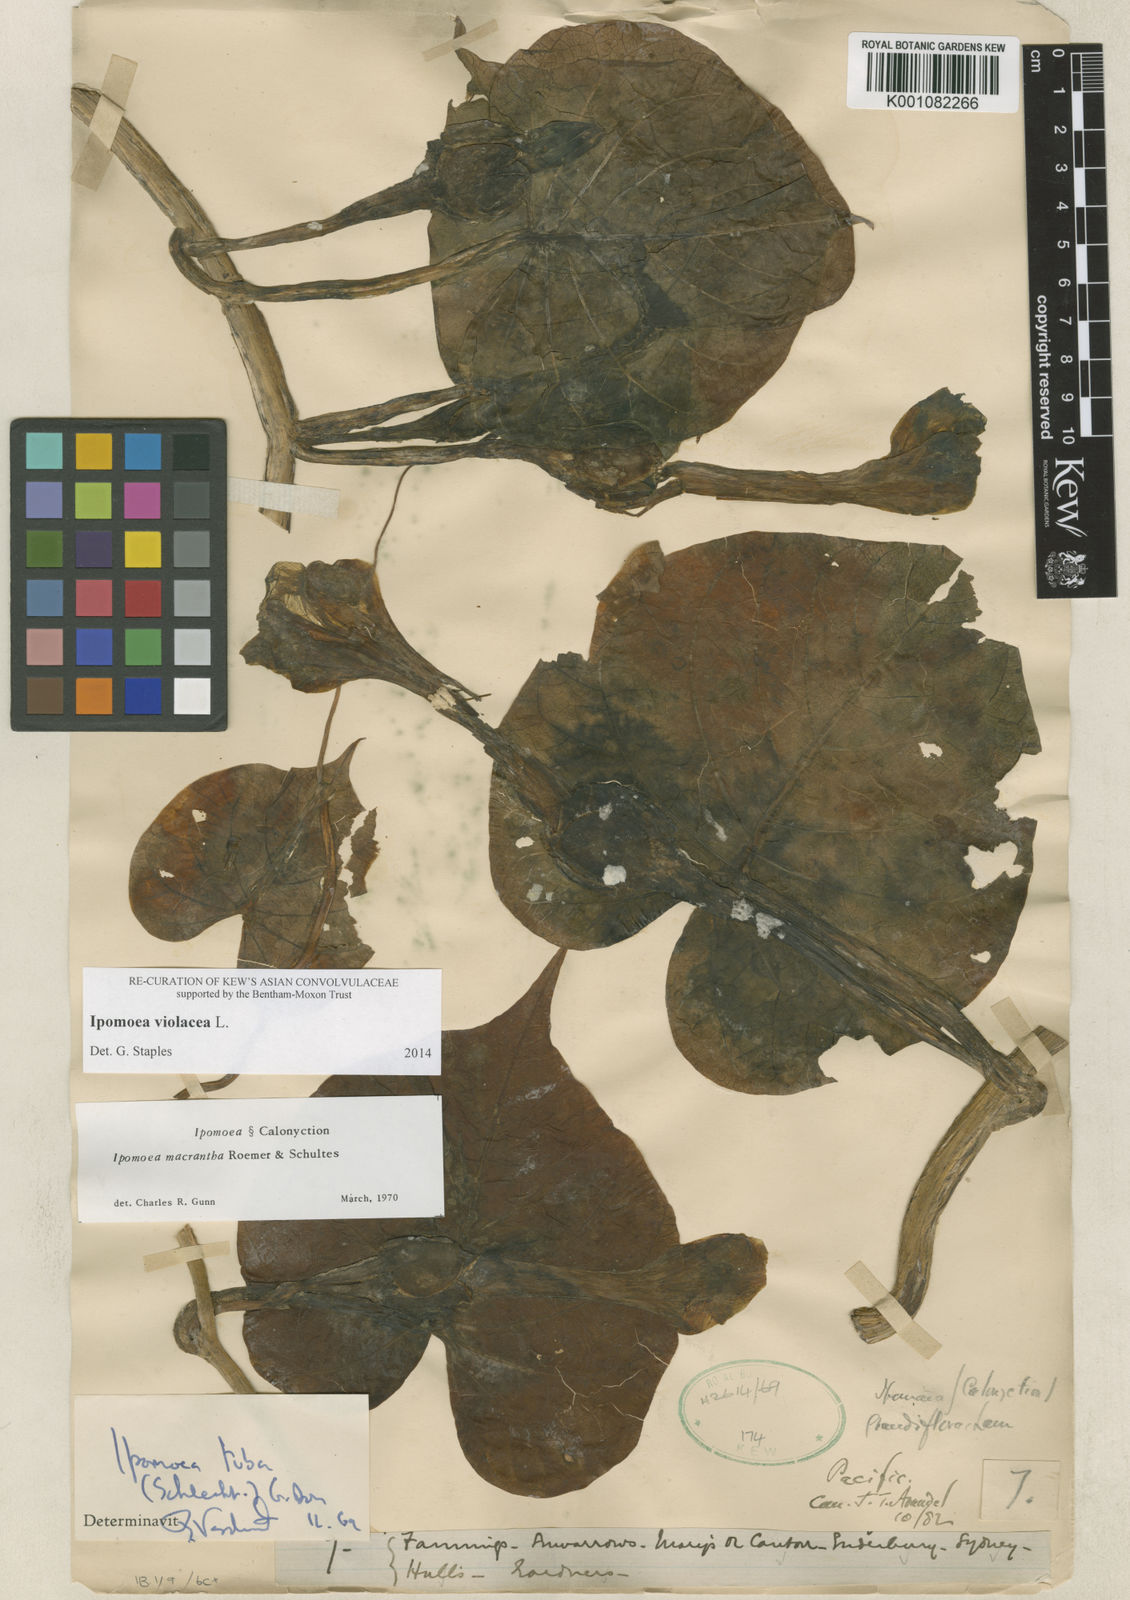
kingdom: Plantae
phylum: Tracheophyta
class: Magnoliopsida
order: Solanales
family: Convolvulaceae
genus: Ipomoea
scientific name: Ipomoea violacea
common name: Beach moonflower
